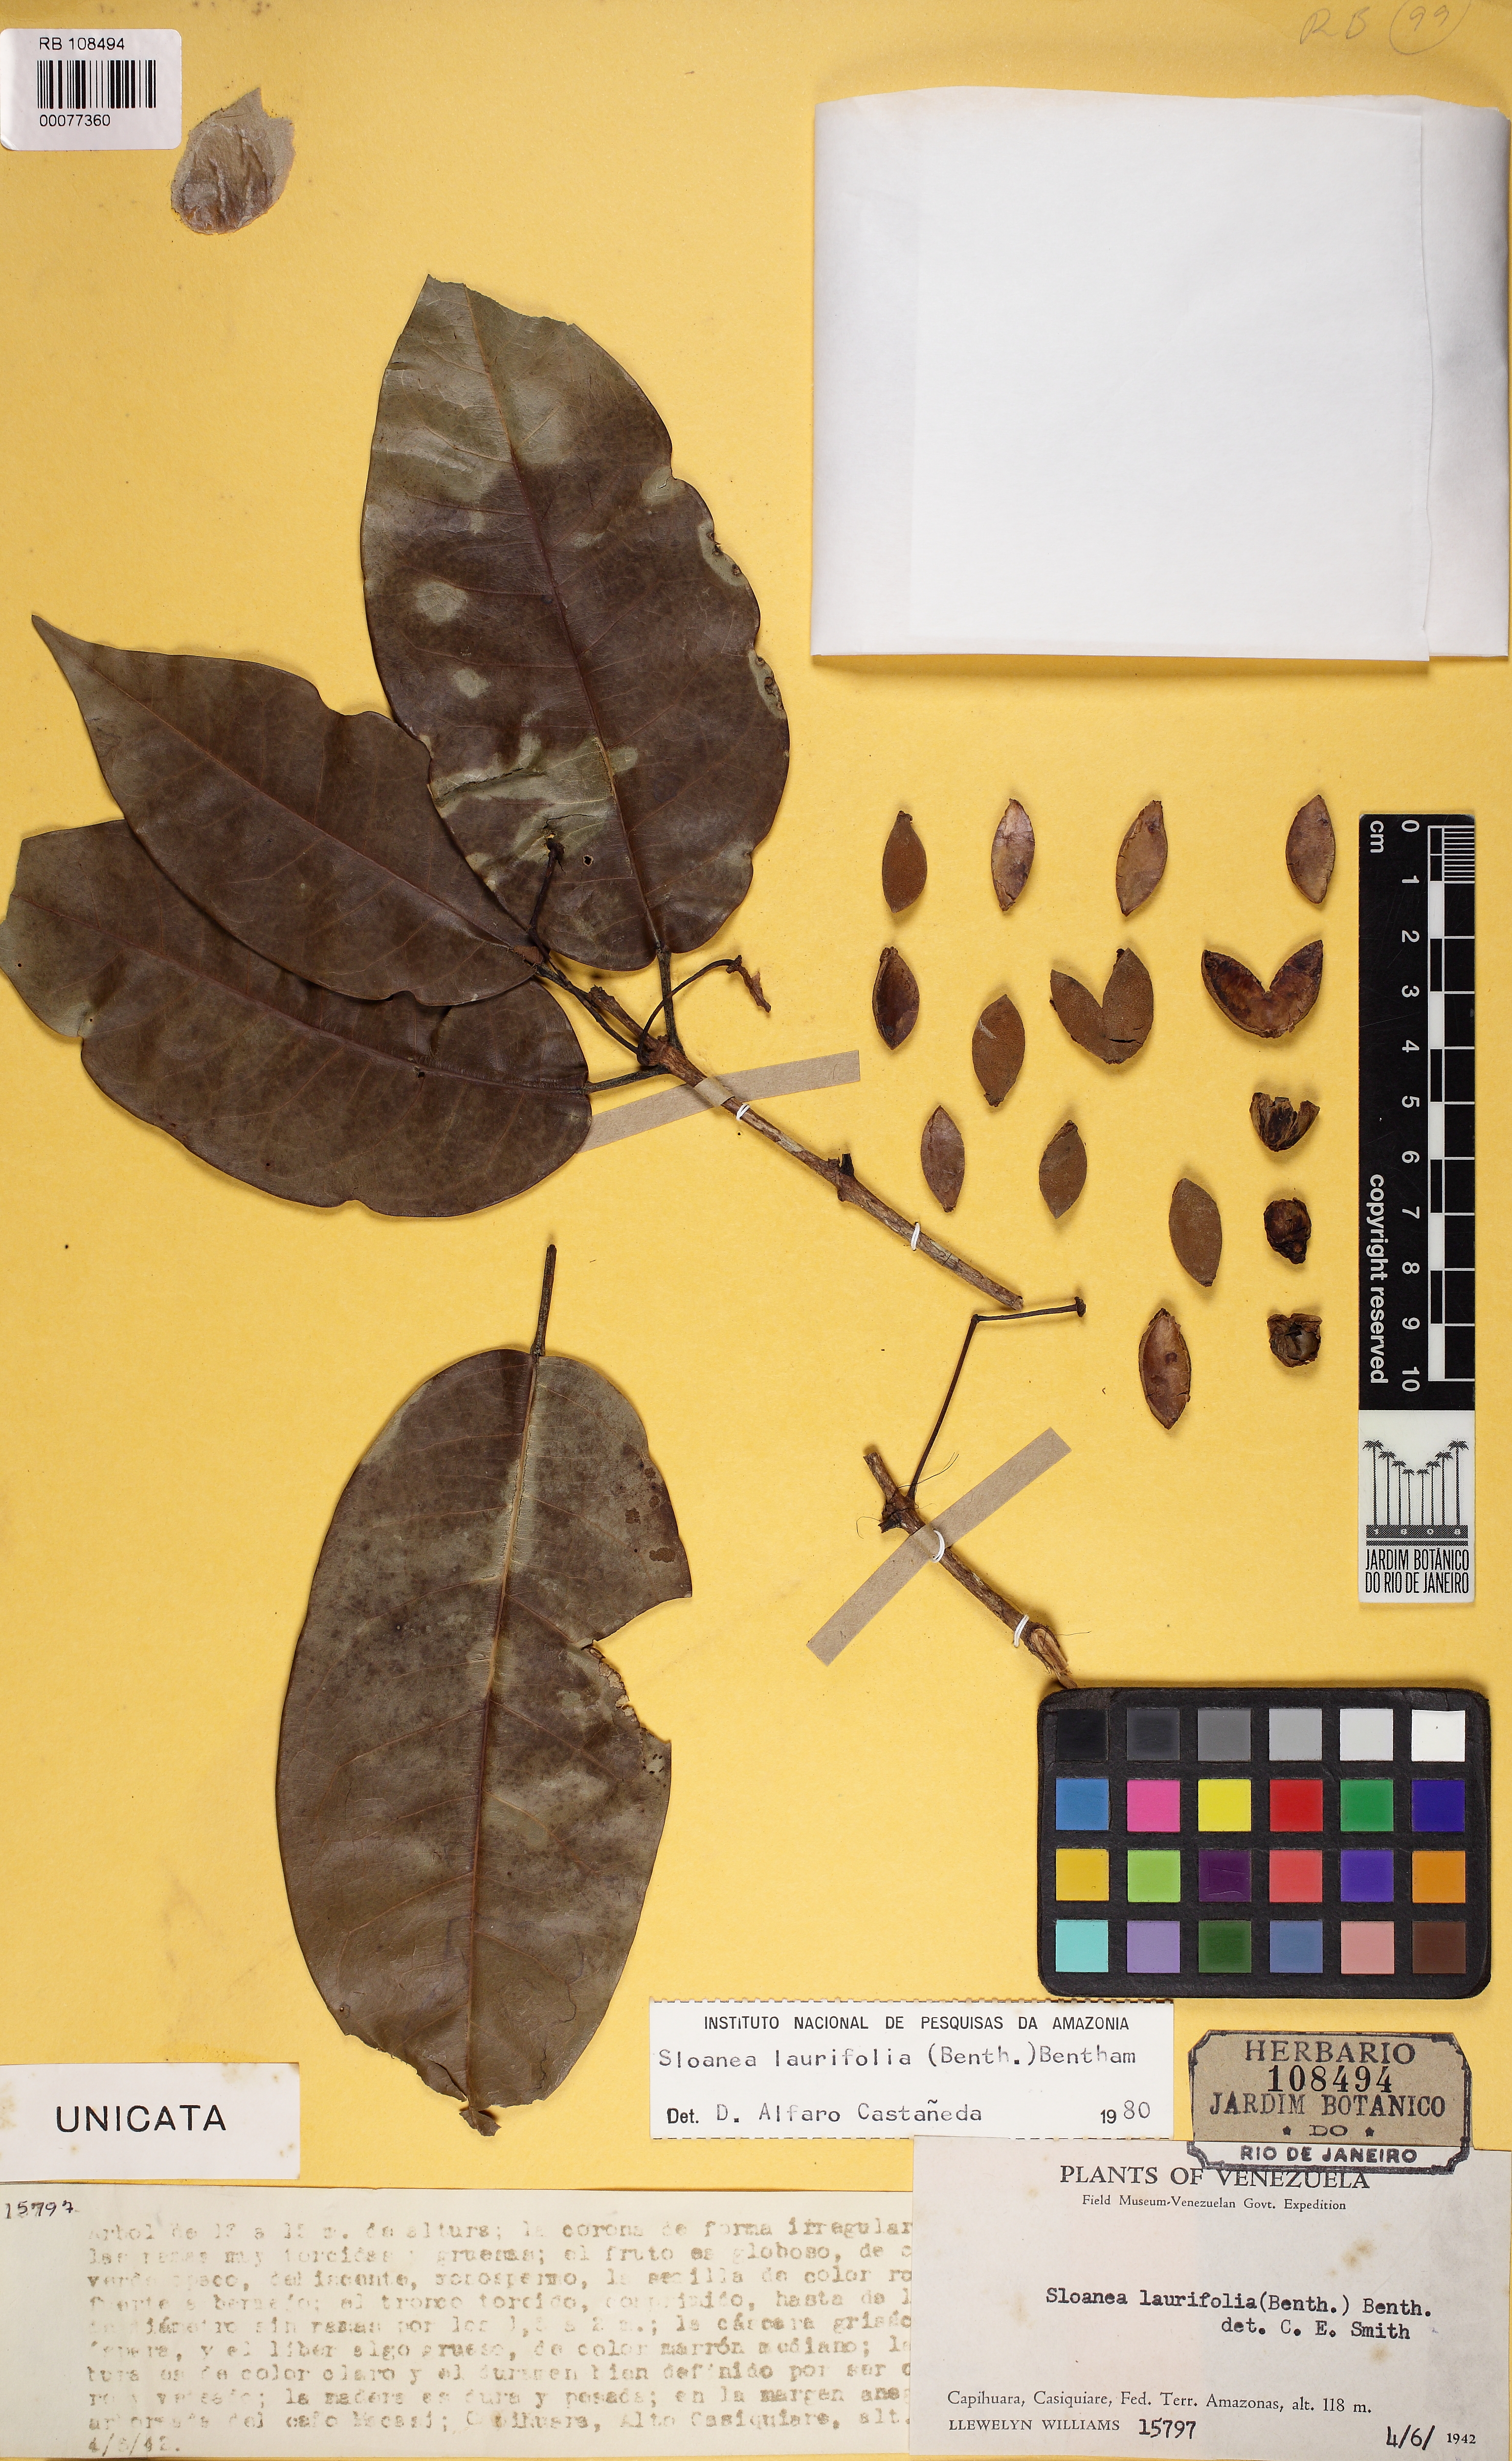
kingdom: Plantae
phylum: Tracheophyta
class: Magnoliopsida
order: Oxalidales
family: Elaeocarpaceae
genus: Sloanea
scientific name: Sloanea laurifolia
